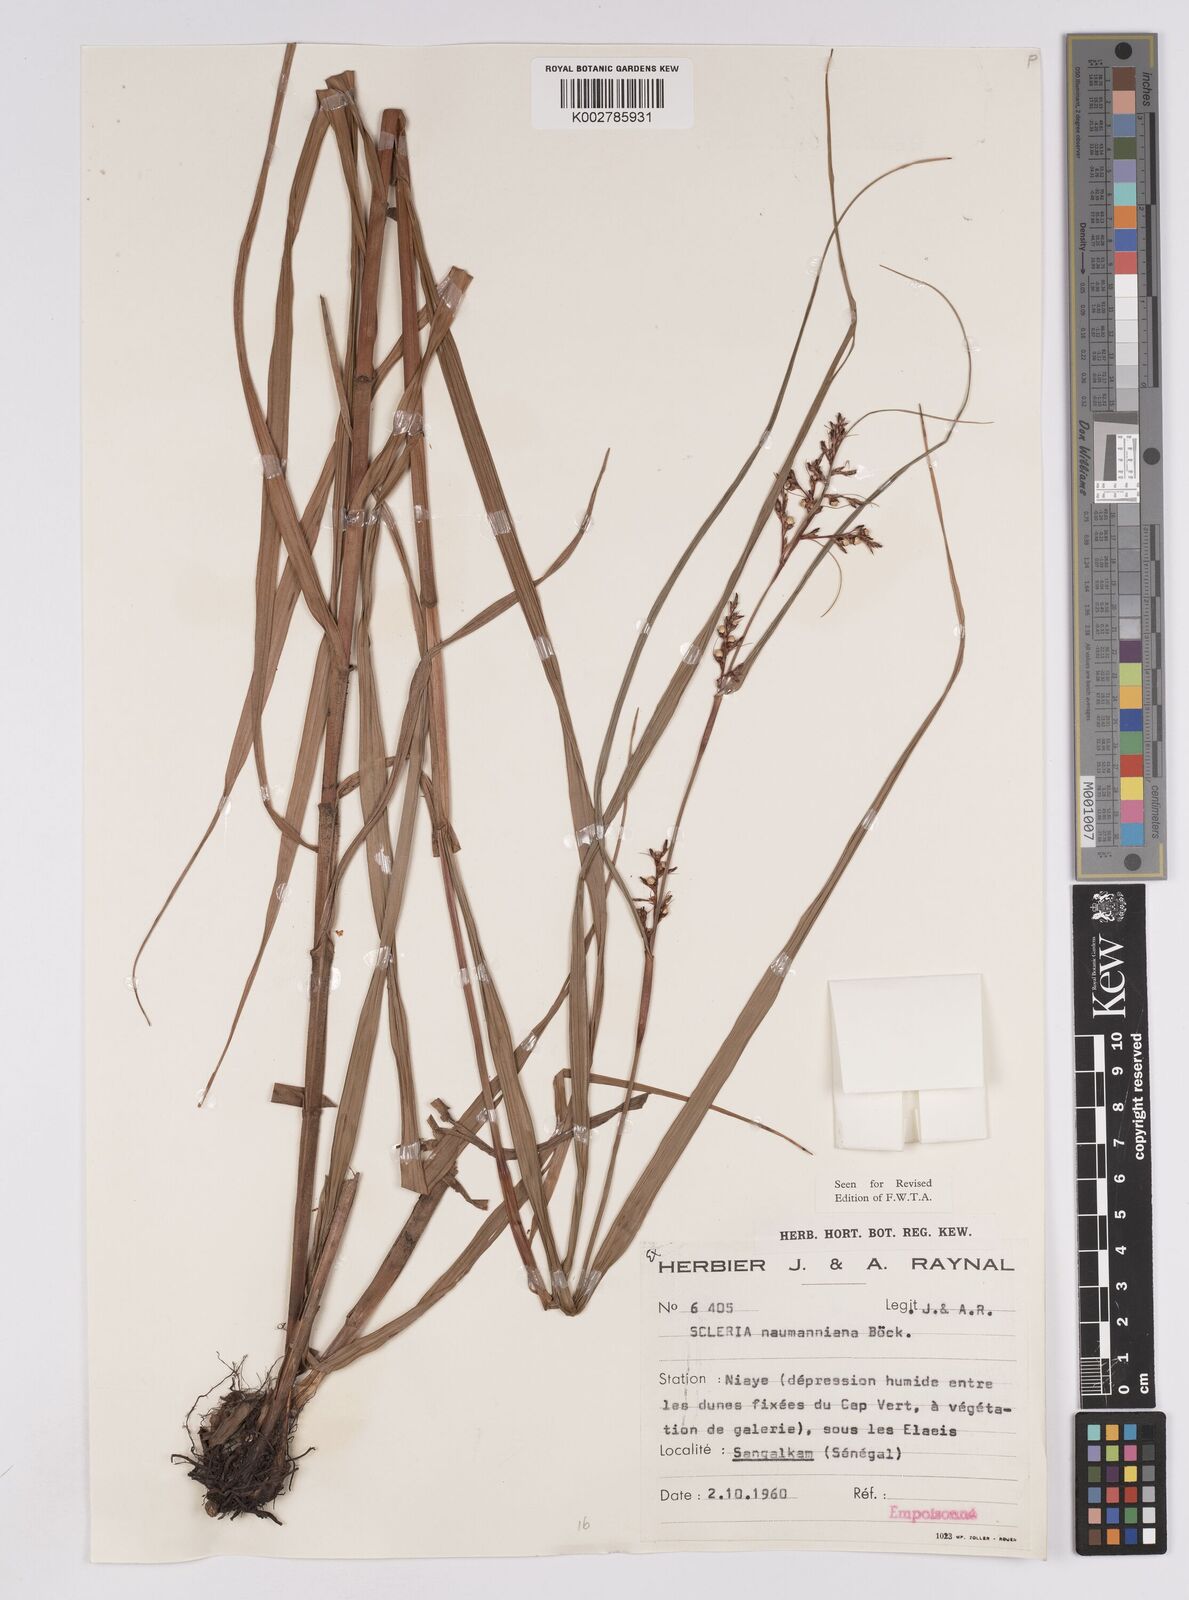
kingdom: Plantae
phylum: Tracheophyta
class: Liliopsida
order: Poales
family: Cyperaceae
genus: Scleria
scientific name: Scleria naumanniana
